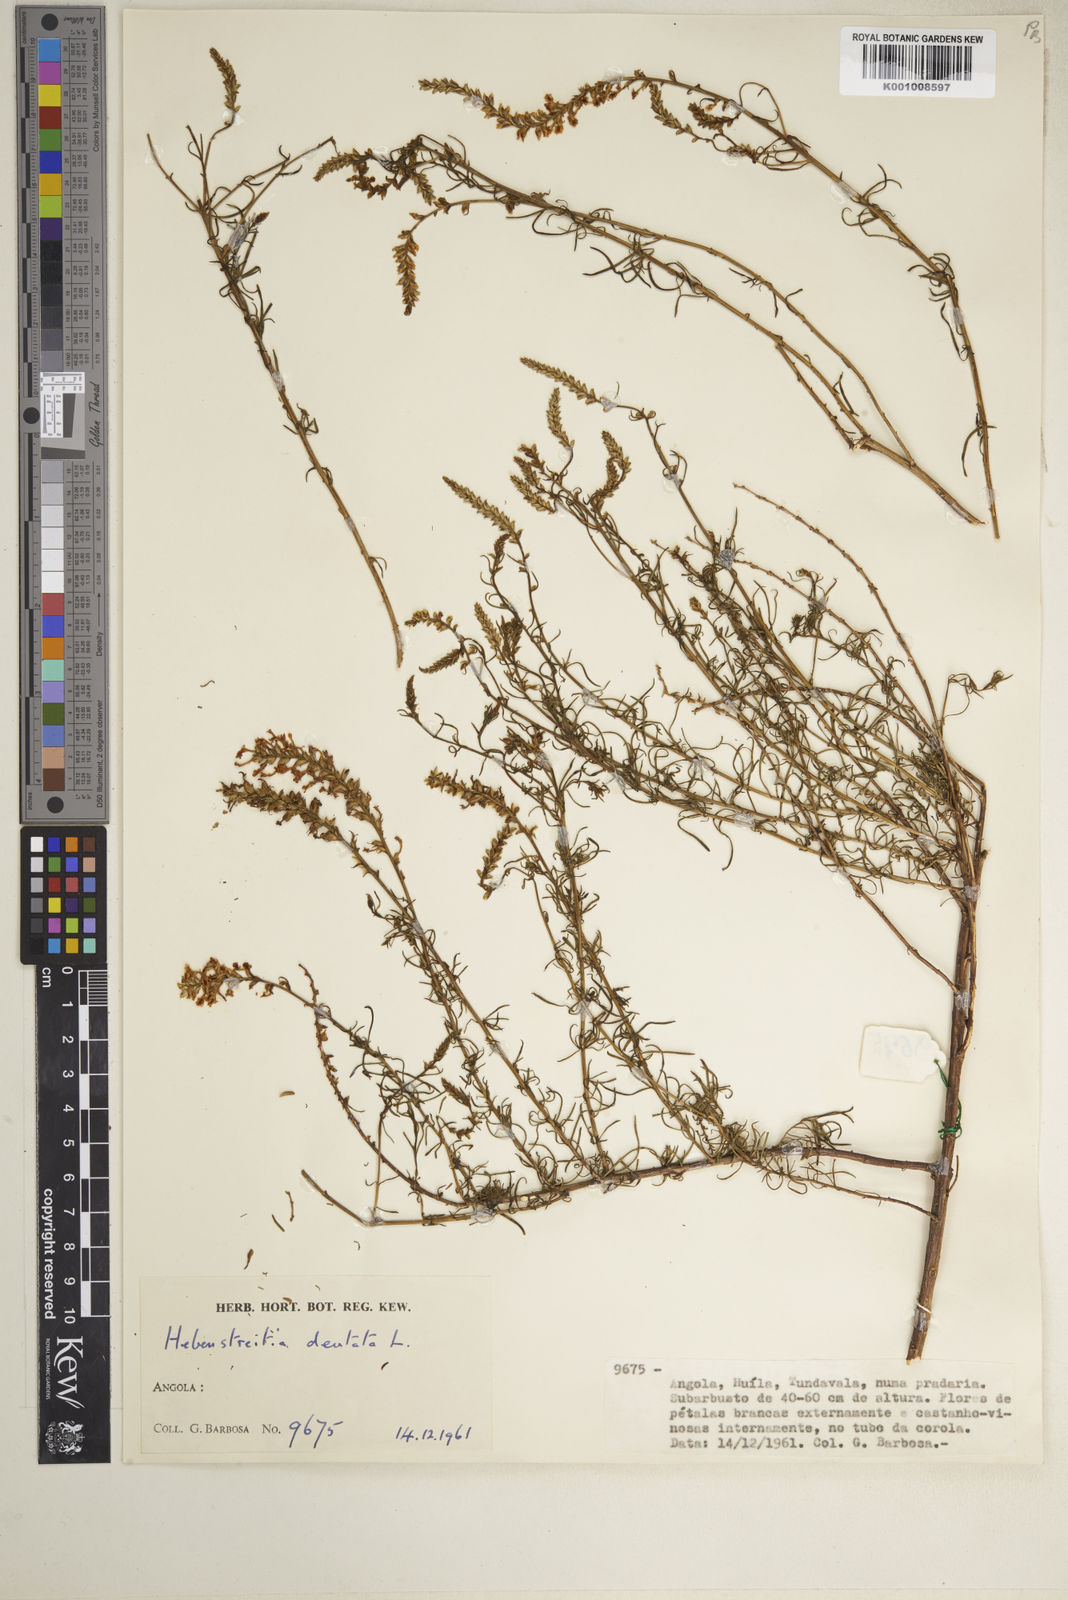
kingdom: Plantae
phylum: Tracheophyta
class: Magnoliopsida
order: Lamiales
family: Scrophulariaceae
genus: Hebenstretia
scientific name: Hebenstretia angolensis
